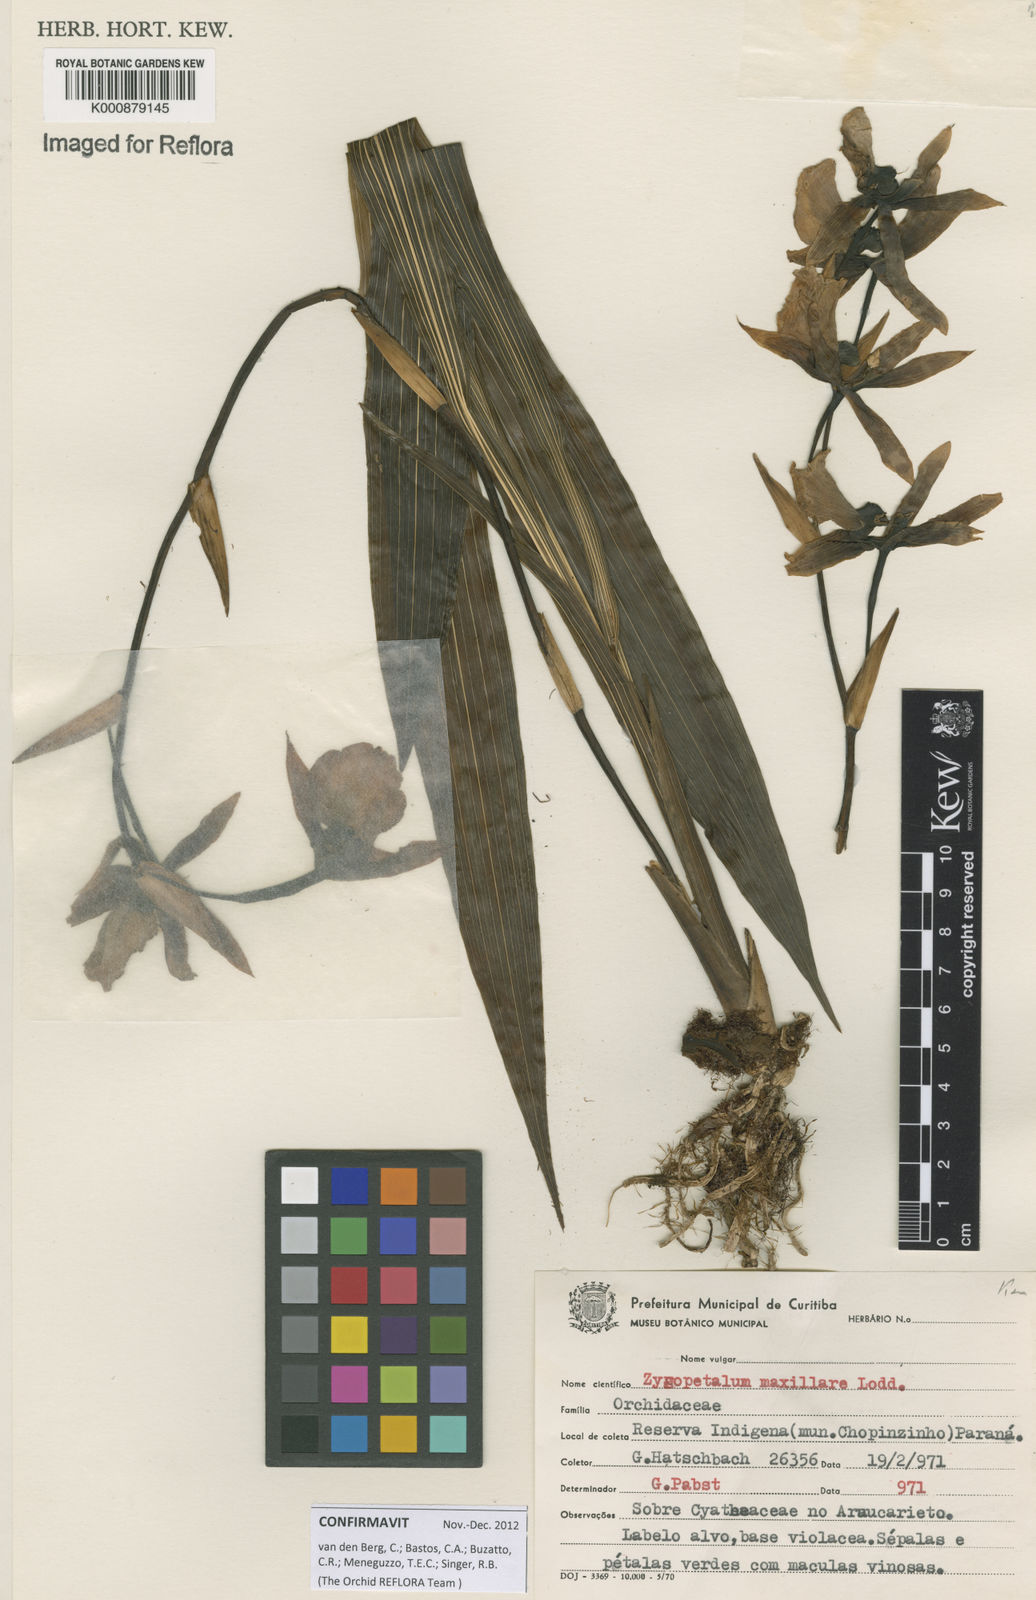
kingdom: Plantae
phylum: Tracheophyta
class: Liliopsida
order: Asparagales
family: Orchidaceae
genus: Zygopetalum
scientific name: Zygopetalum maxillare
